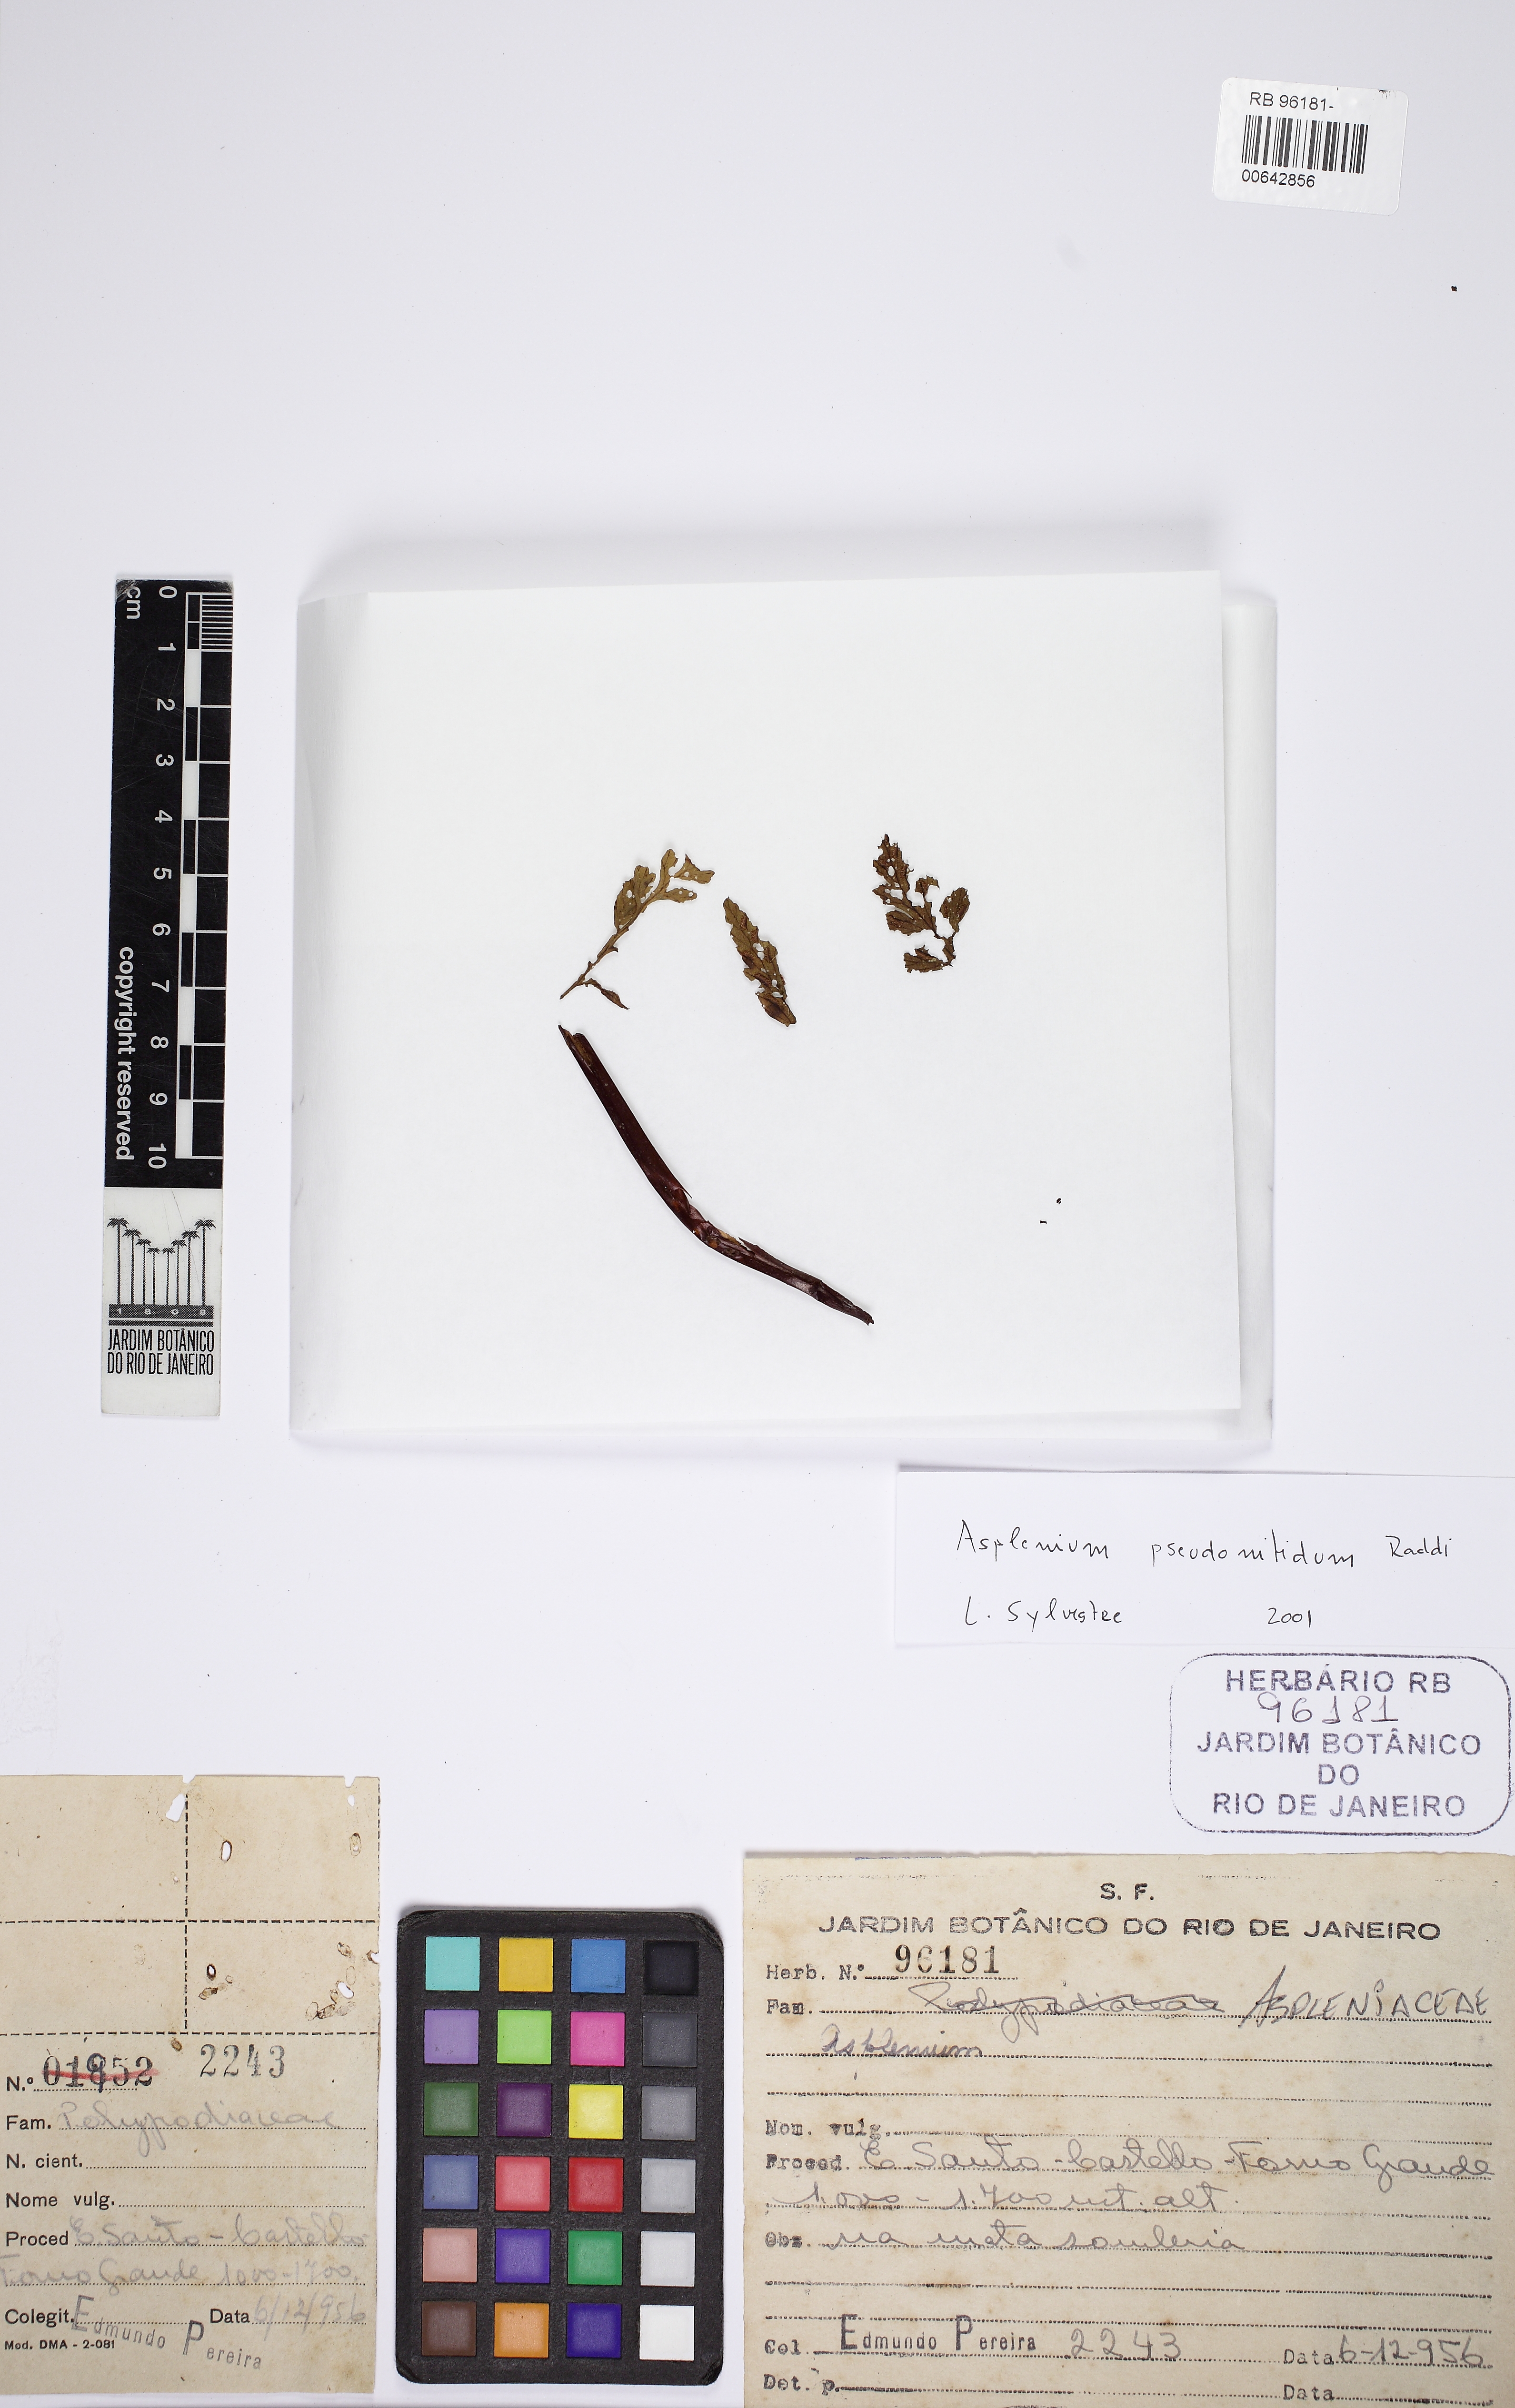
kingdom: Plantae
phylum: Tracheophyta
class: Polypodiopsida
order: Polypodiales
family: Aspleniaceae
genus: Asplenium
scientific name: Asplenium pseudonitidum
